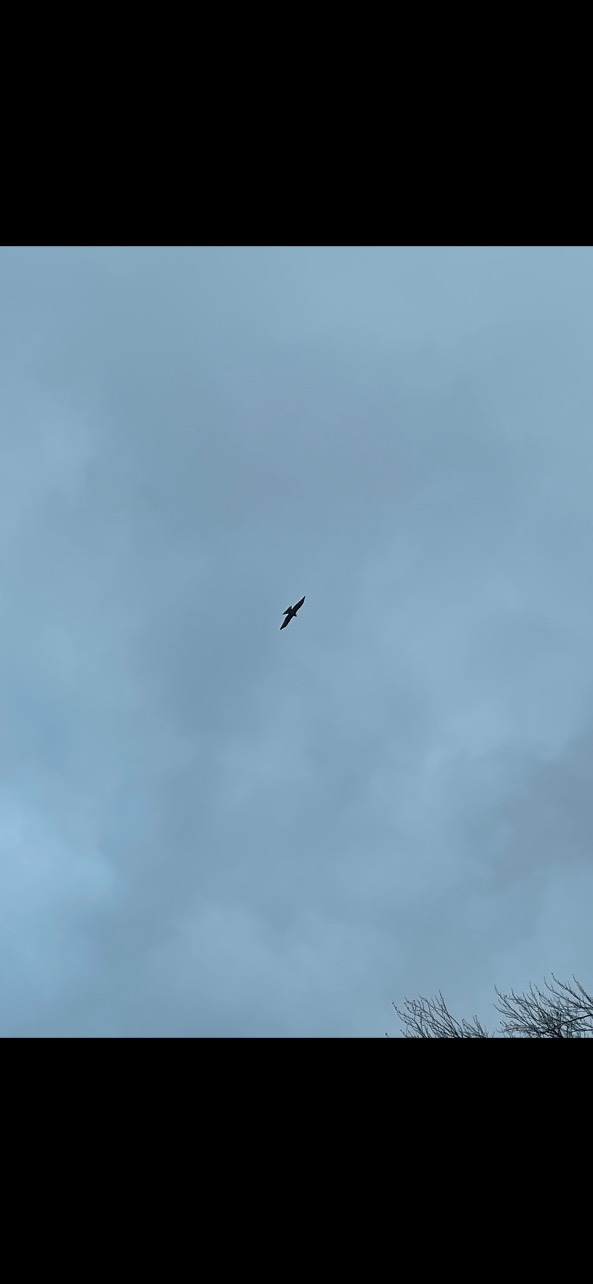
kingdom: Animalia
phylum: Chordata
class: Aves
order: Accipitriformes
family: Accipitridae
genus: Milvus
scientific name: Milvus milvus
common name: Rød glente
